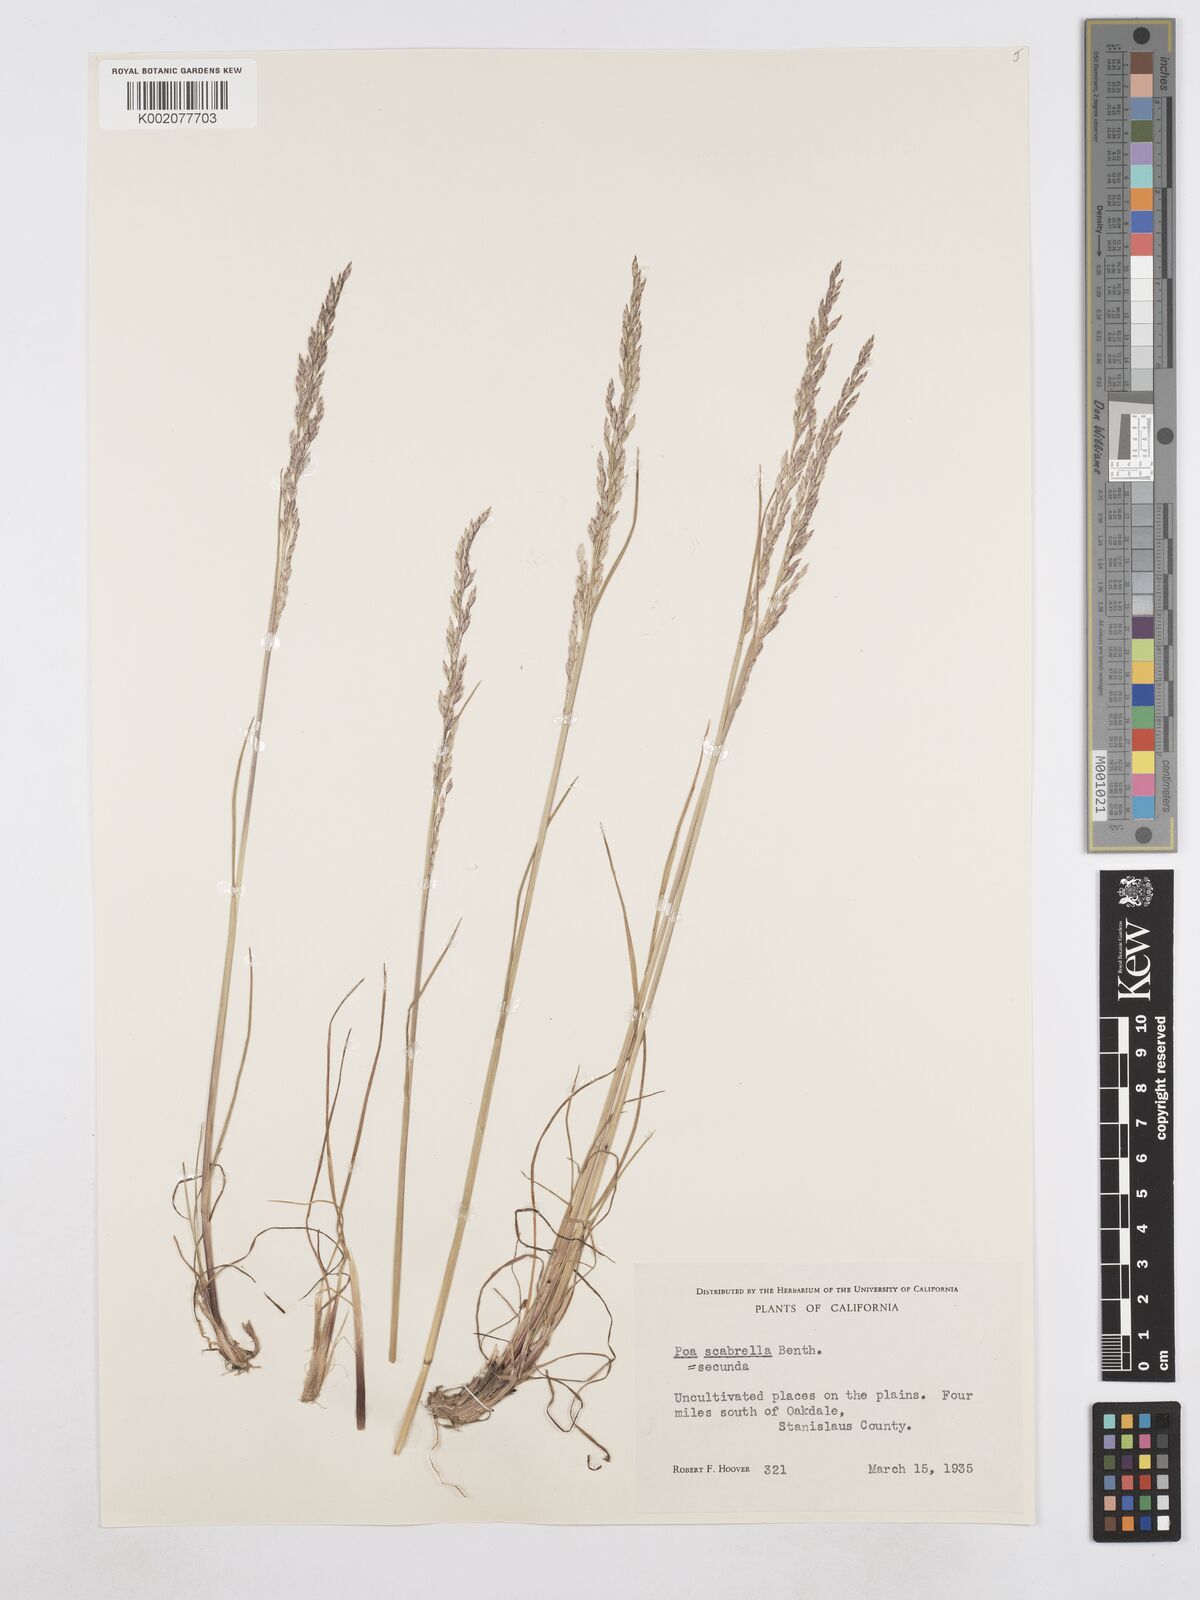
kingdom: Plantae
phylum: Tracheophyta
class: Liliopsida
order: Poales
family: Poaceae
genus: Poa
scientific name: Poa secunda
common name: Sandberg bluegrass
